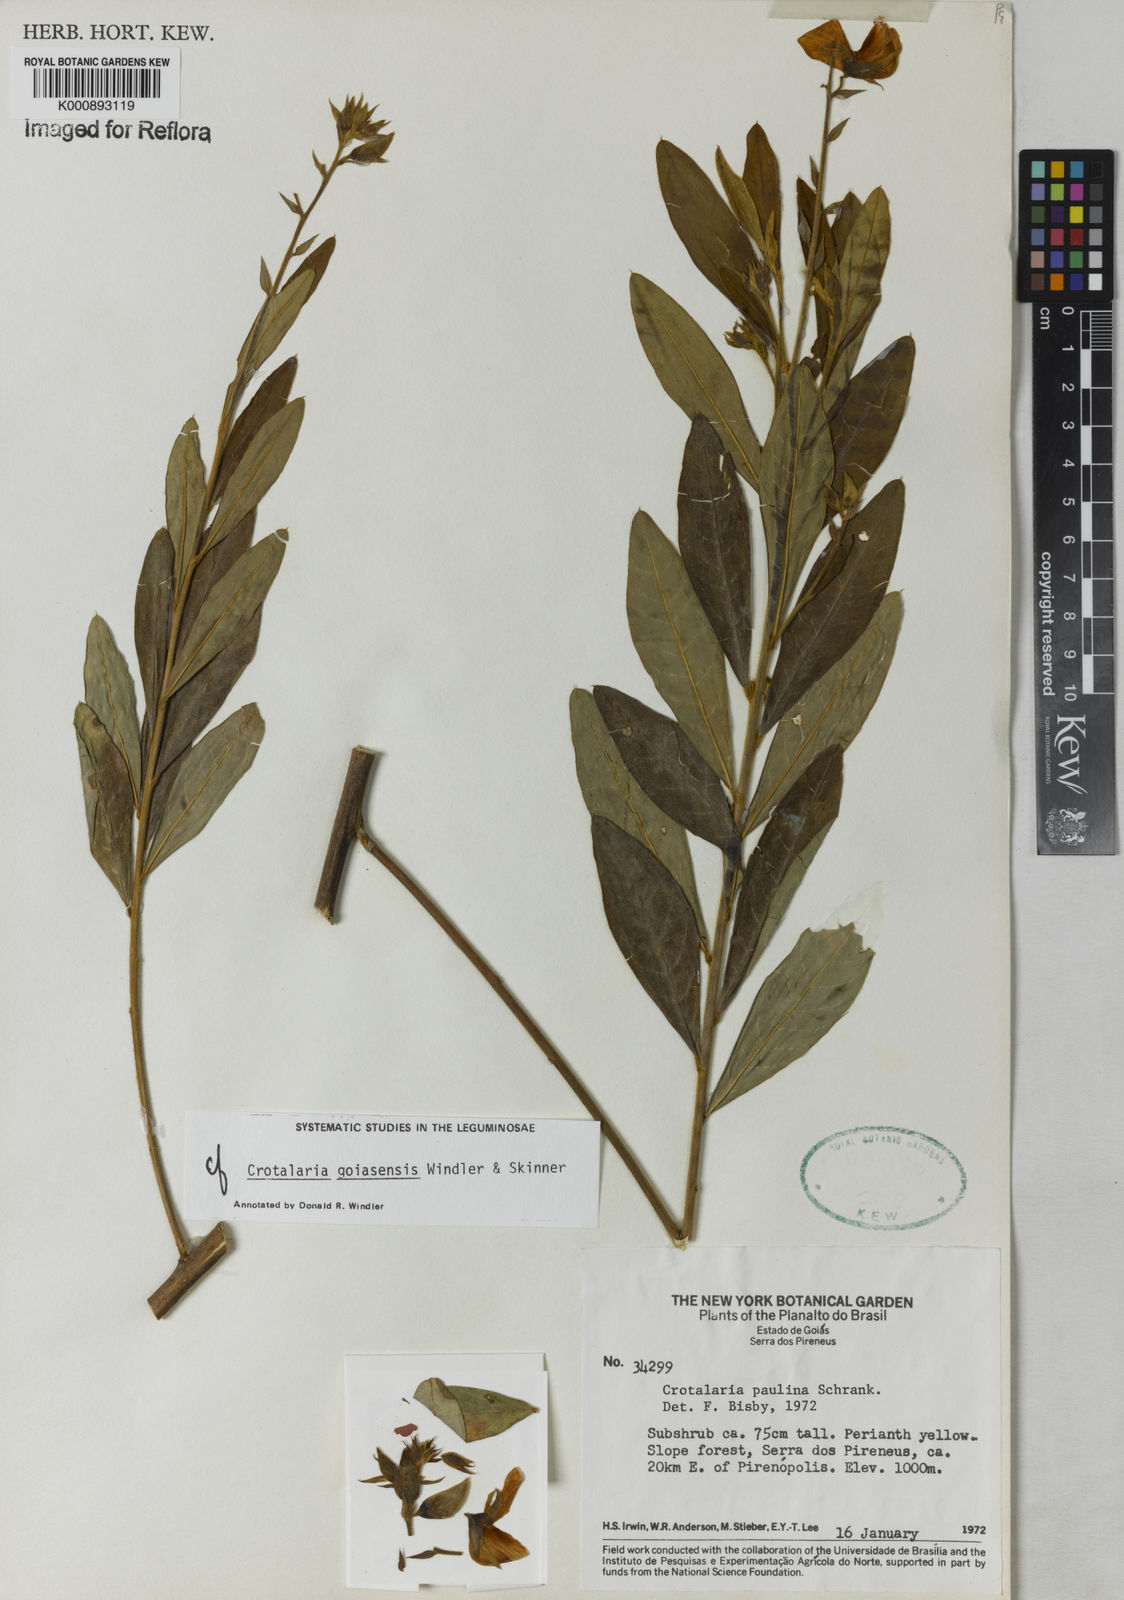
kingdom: Plantae
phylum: Tracheophyta
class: Magnoliopsida
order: Fabales
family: Fabaceae
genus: Crotalaria
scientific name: Crotalaria goiasensis
